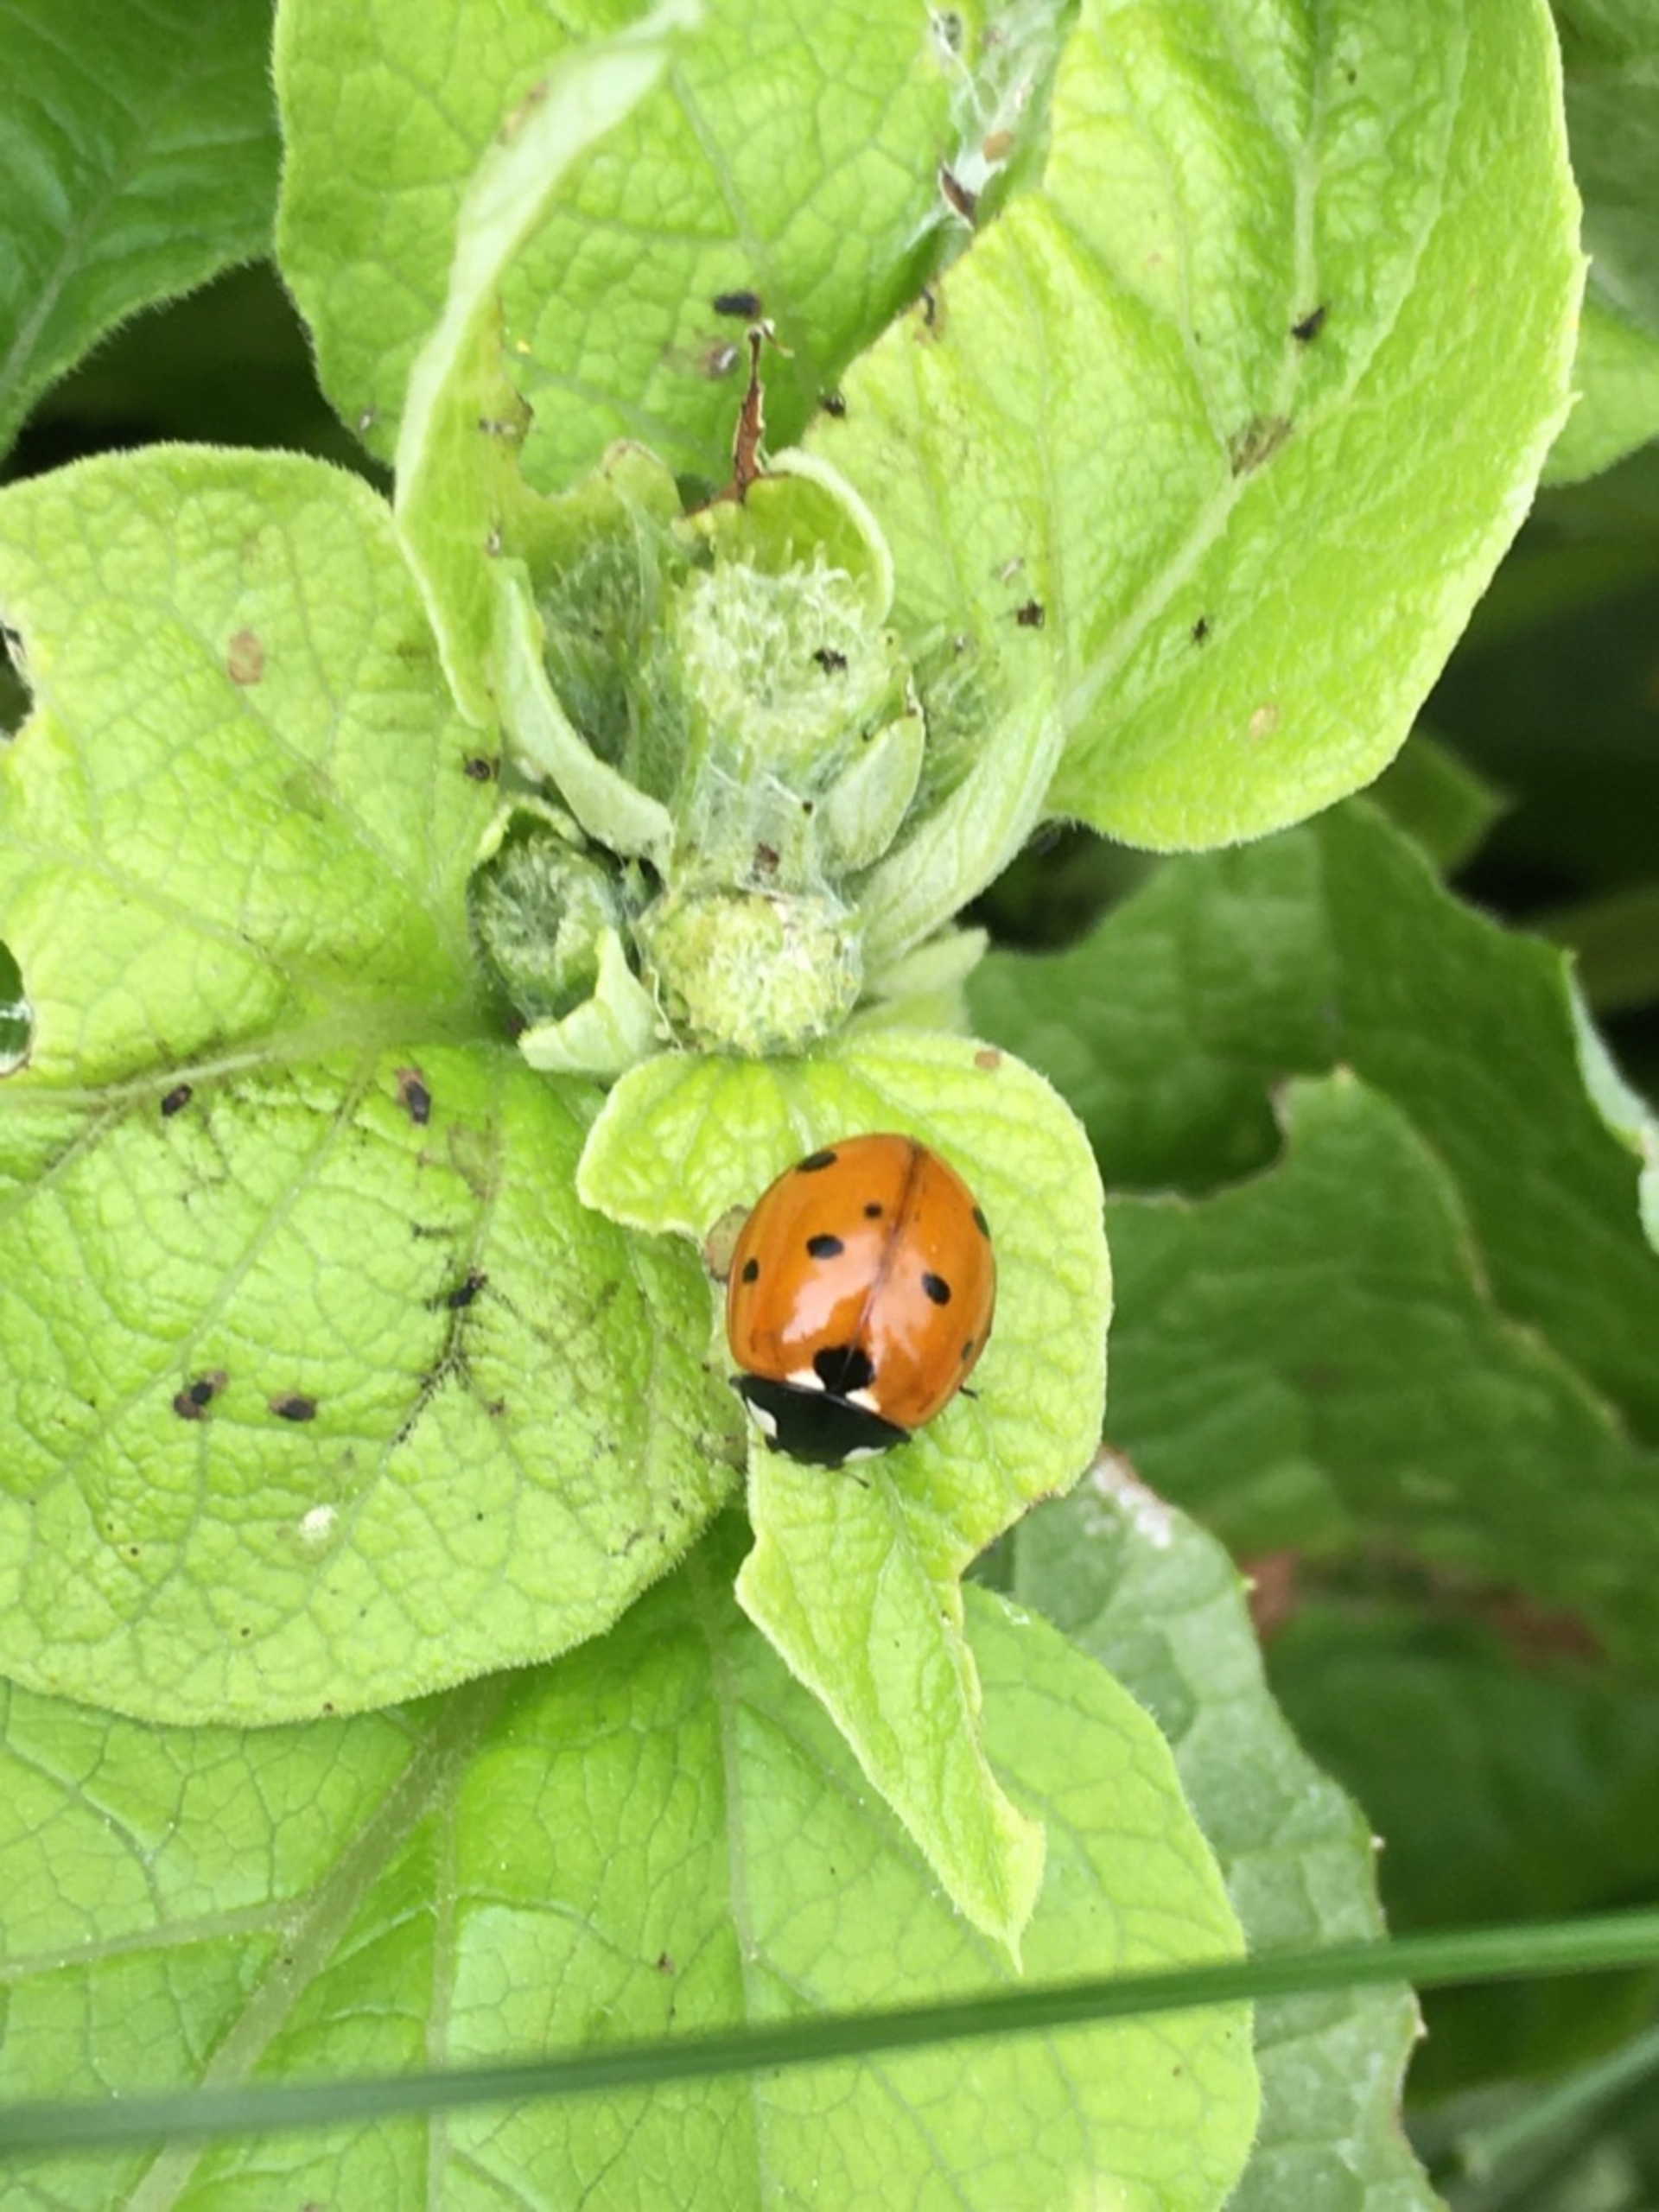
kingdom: Animalia
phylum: Arthropoda
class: Insecta
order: Coleoptera
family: Coccinellidae
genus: Coccinella
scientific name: Coccinella septempunctata
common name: Syvplettet mariehøne
